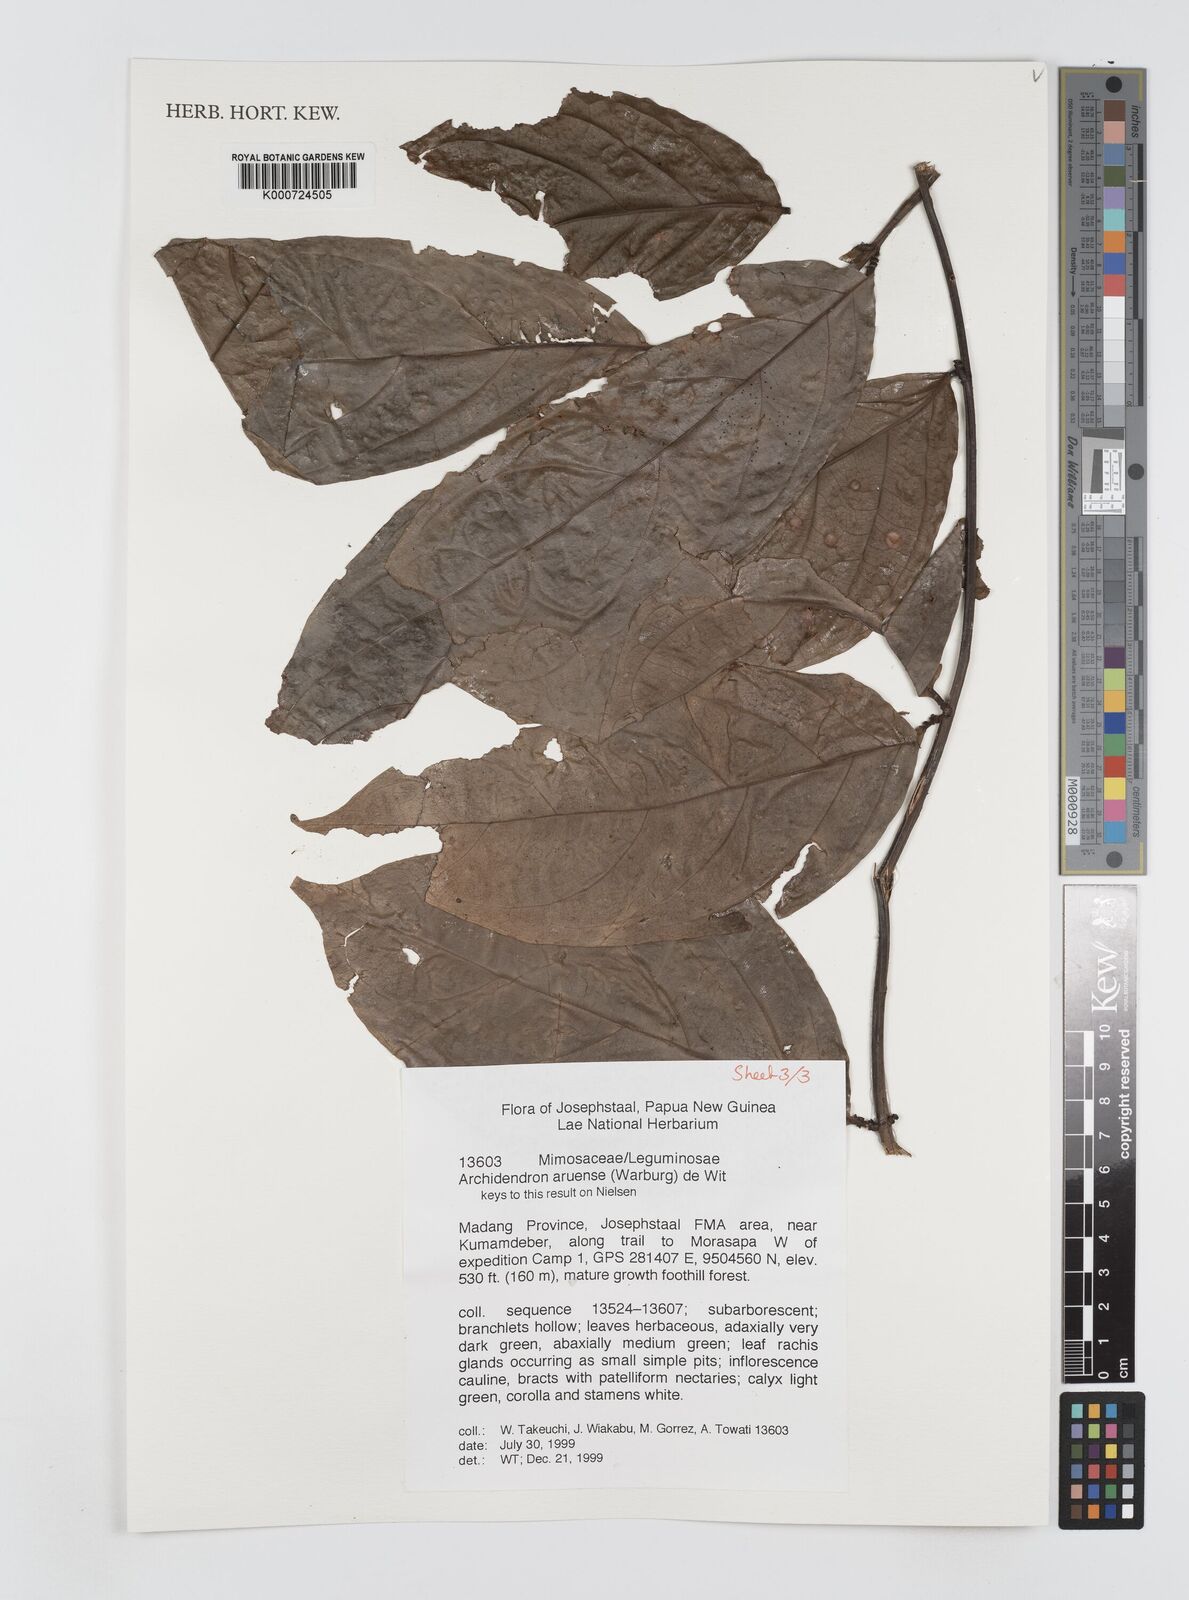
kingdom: Plantae
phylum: Tracheophyta
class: Magnoliopsida
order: Fabales
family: Fabaceae
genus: Archidendron
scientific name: Archidendron aruense
